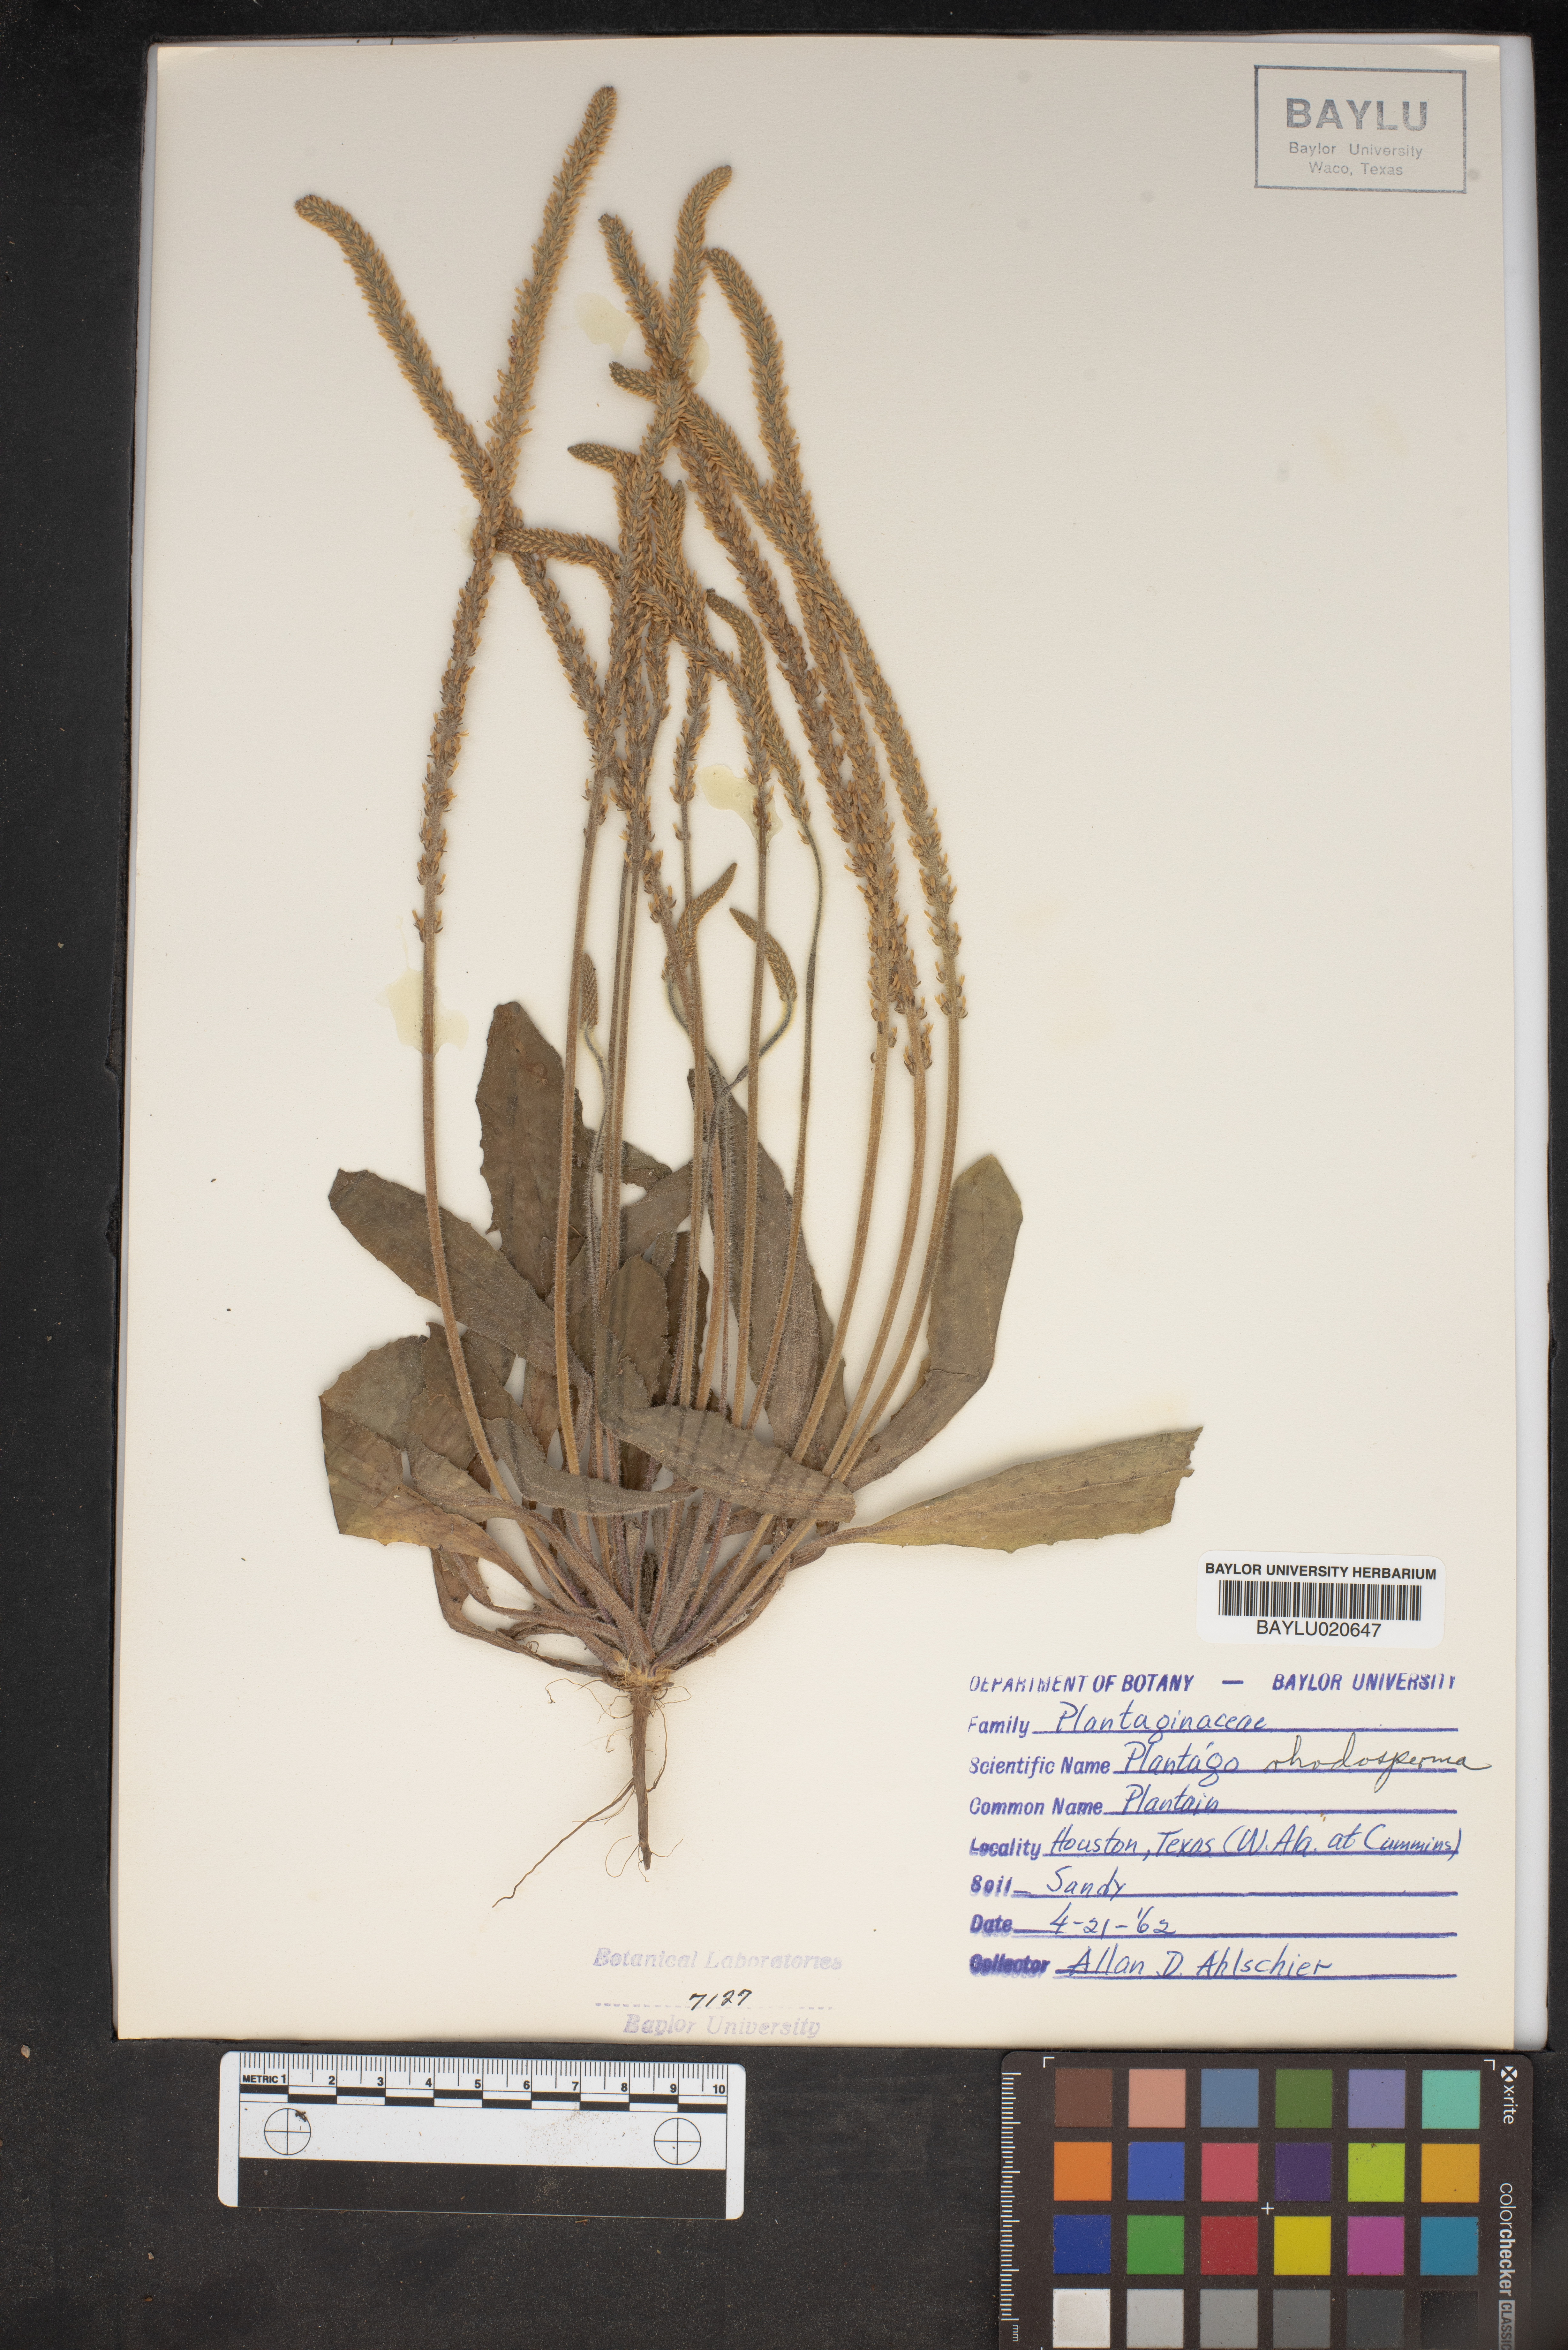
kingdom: Plantae
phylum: Tracheophyta
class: Magnoliopsida
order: Lamiales
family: Plantaginaceae
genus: Plantago
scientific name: Plantago rhodosperma
